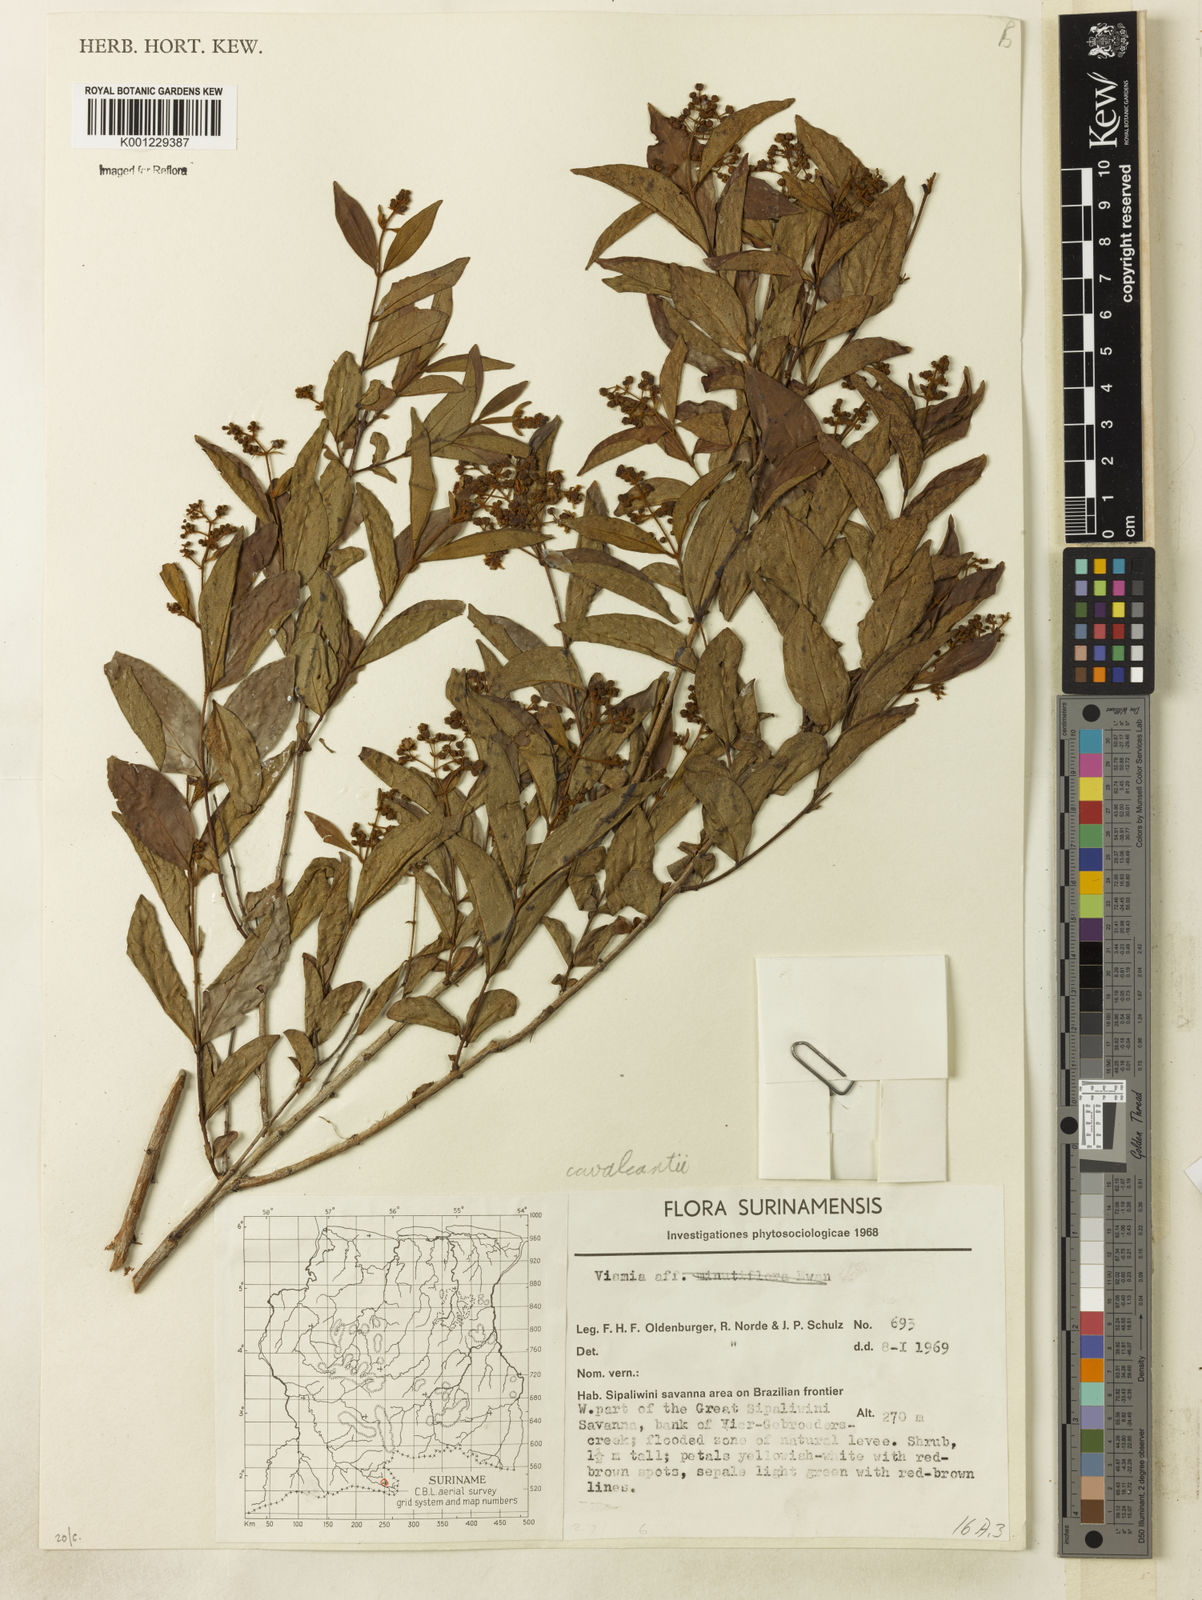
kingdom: Plantae
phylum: Tracheophyta
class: Magnoliopsida
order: Malpighiales
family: Hypericaceae
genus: Vismia
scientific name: Vismia cavalcantei
